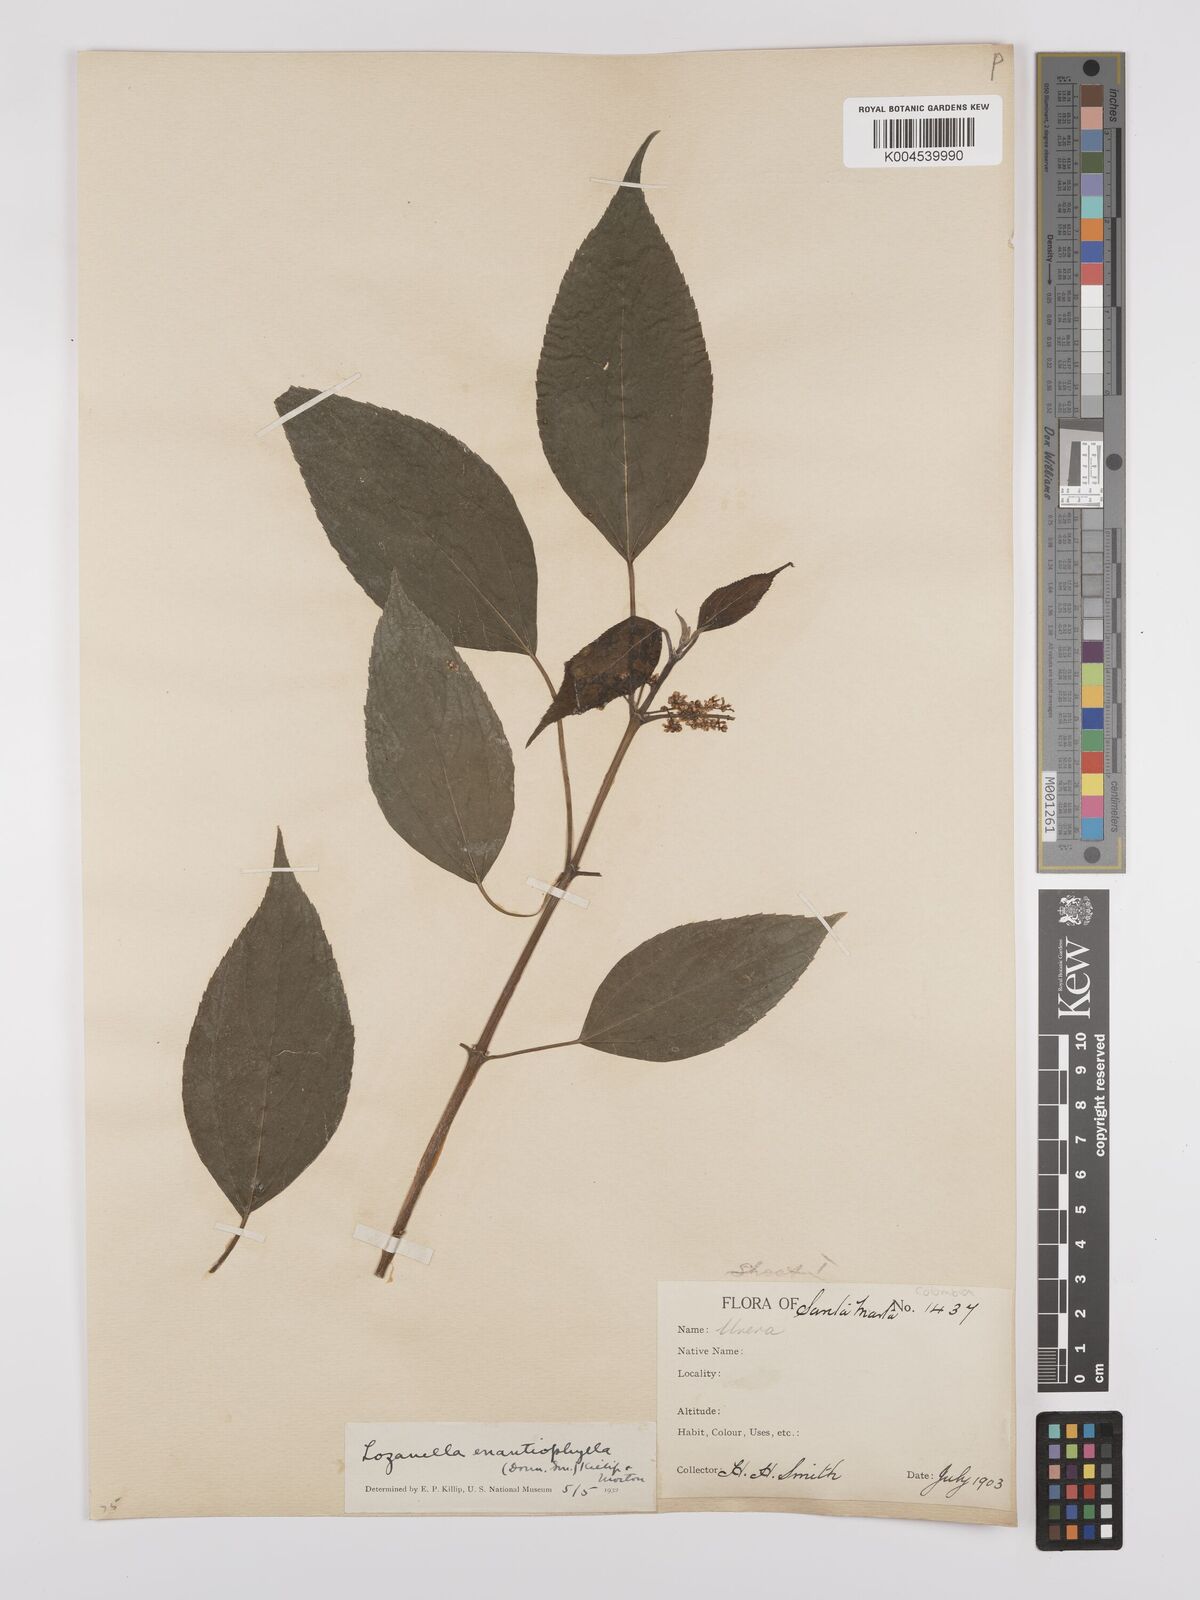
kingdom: Plantae
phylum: Tracheophyta
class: Magnoliopsida
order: Rosales
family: Cannabaceae
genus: Lozanella
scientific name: Lozanella enantiophylla
